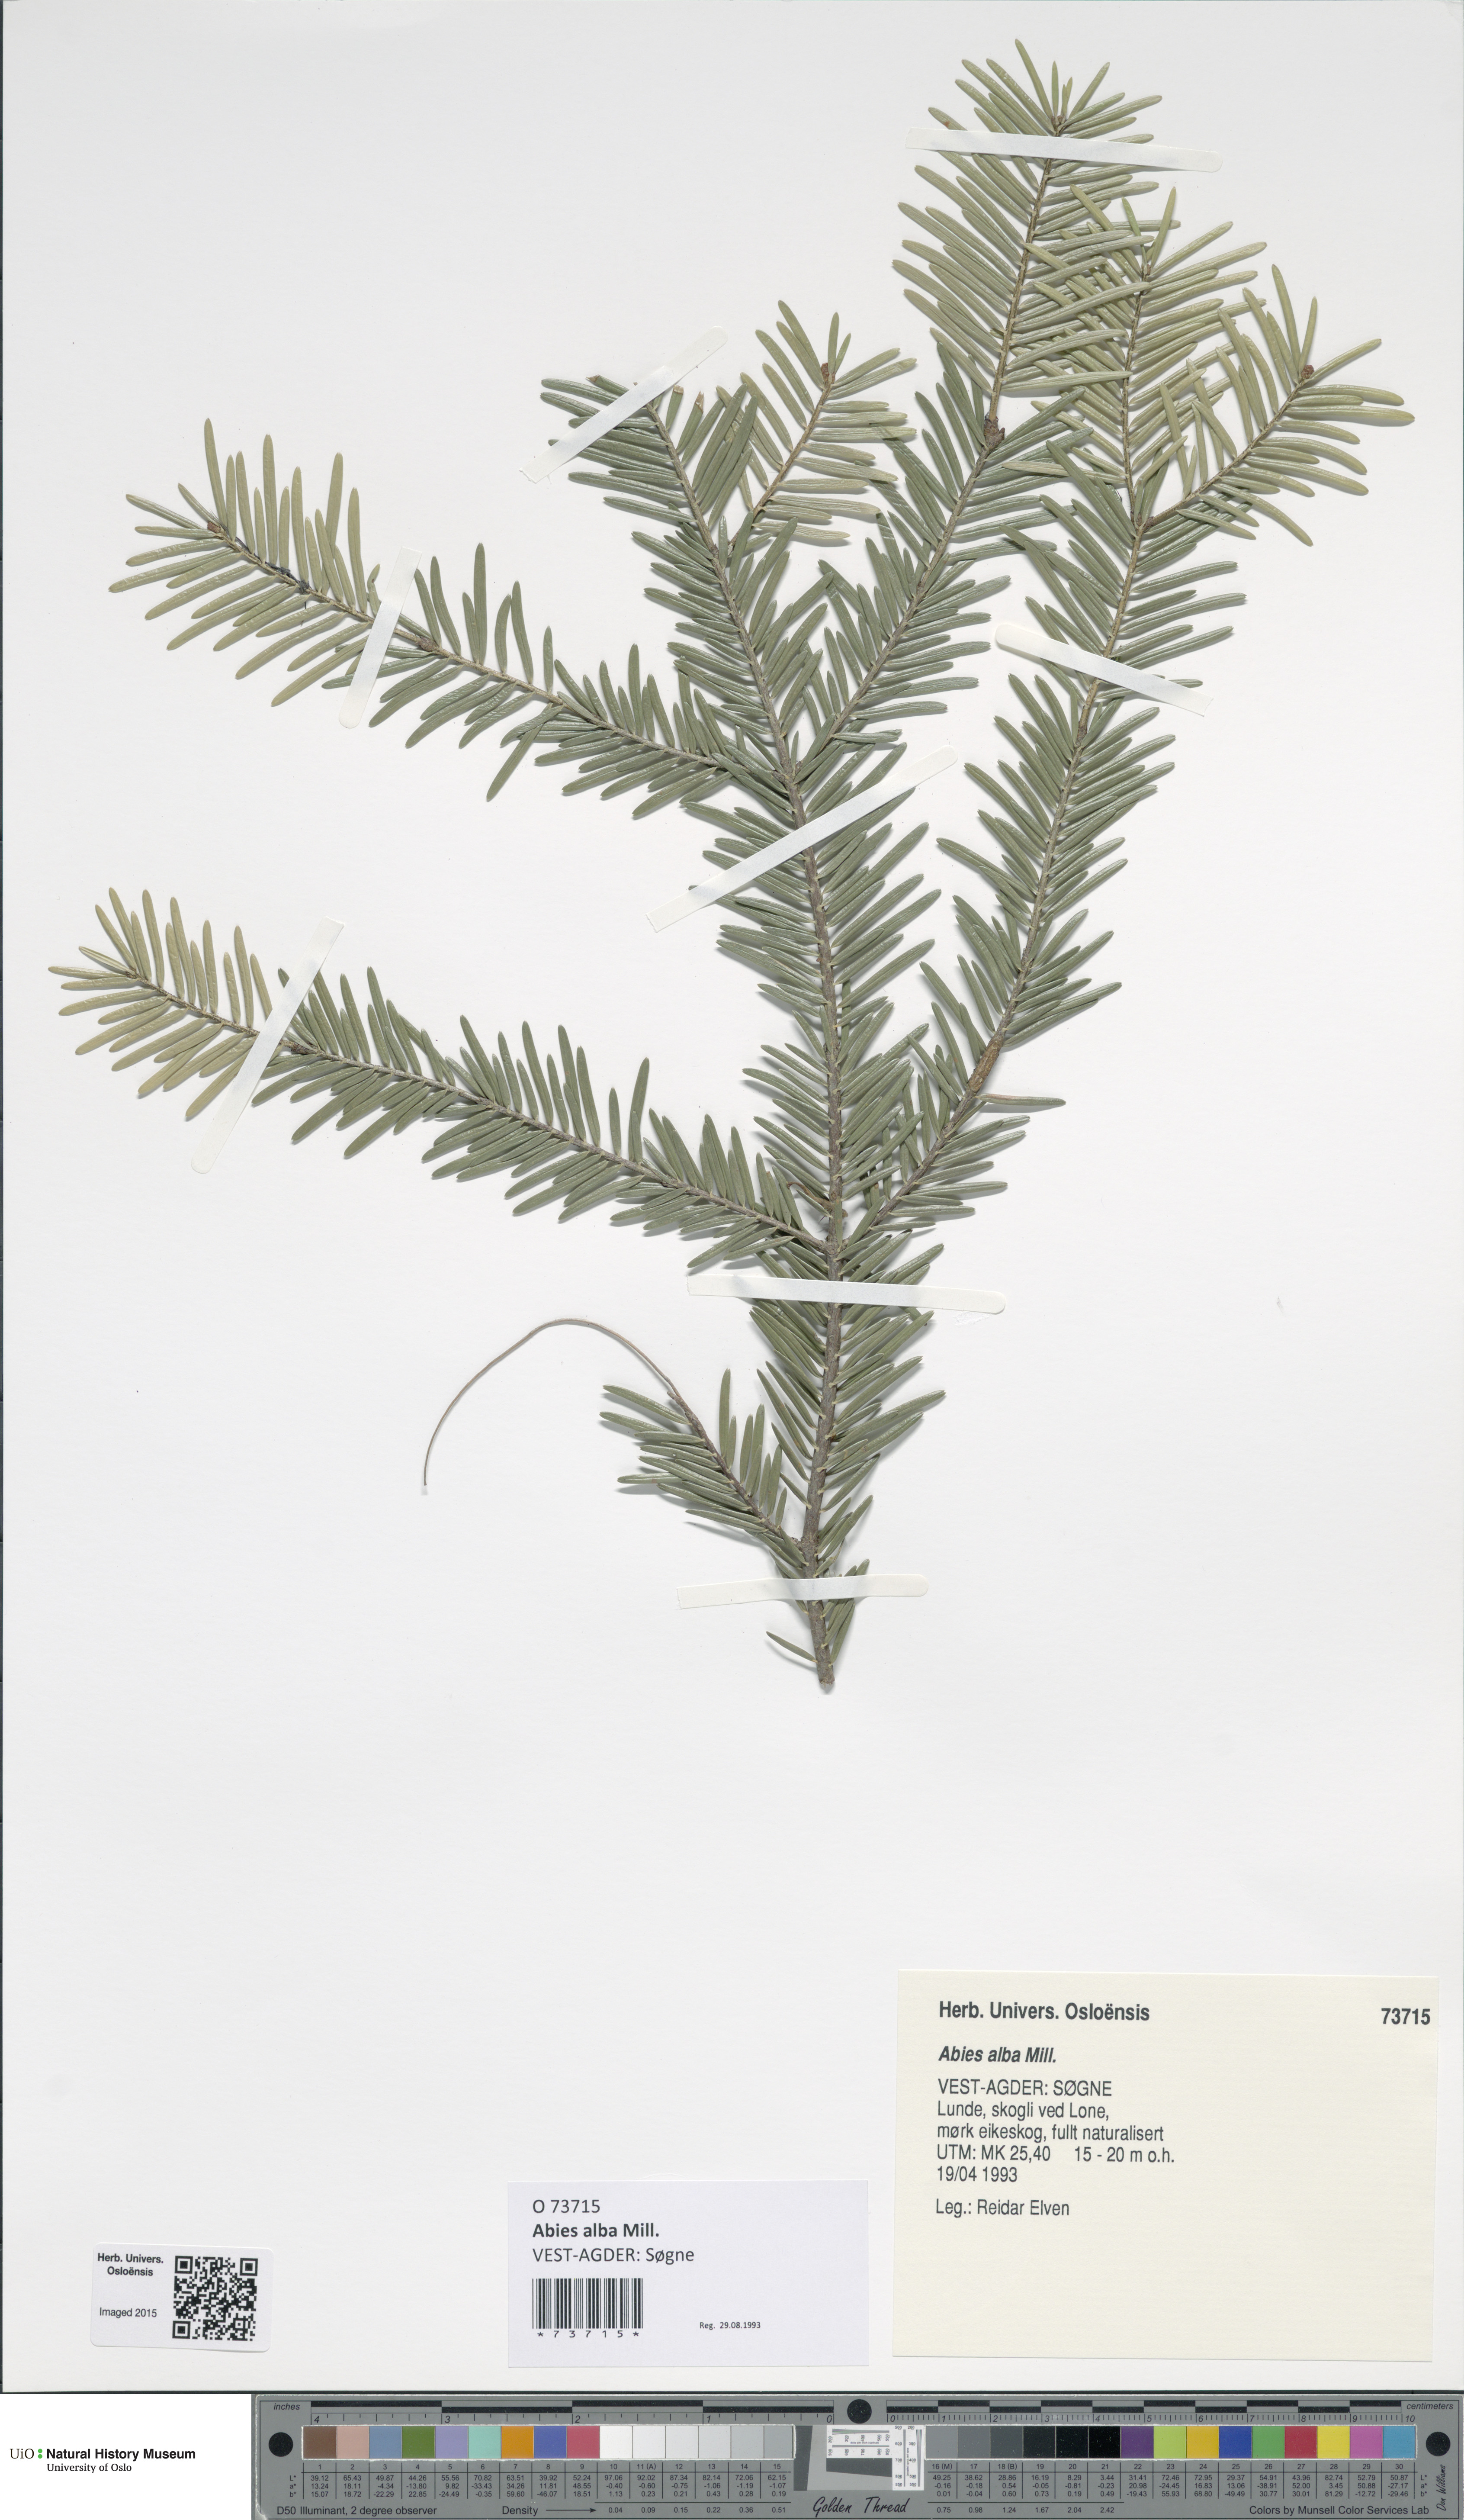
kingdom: Plantae
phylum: Tracheophyta
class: Pinopsida
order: Pinales
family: Pinaceae
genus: Abies
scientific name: Abies alba
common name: Silver fir
